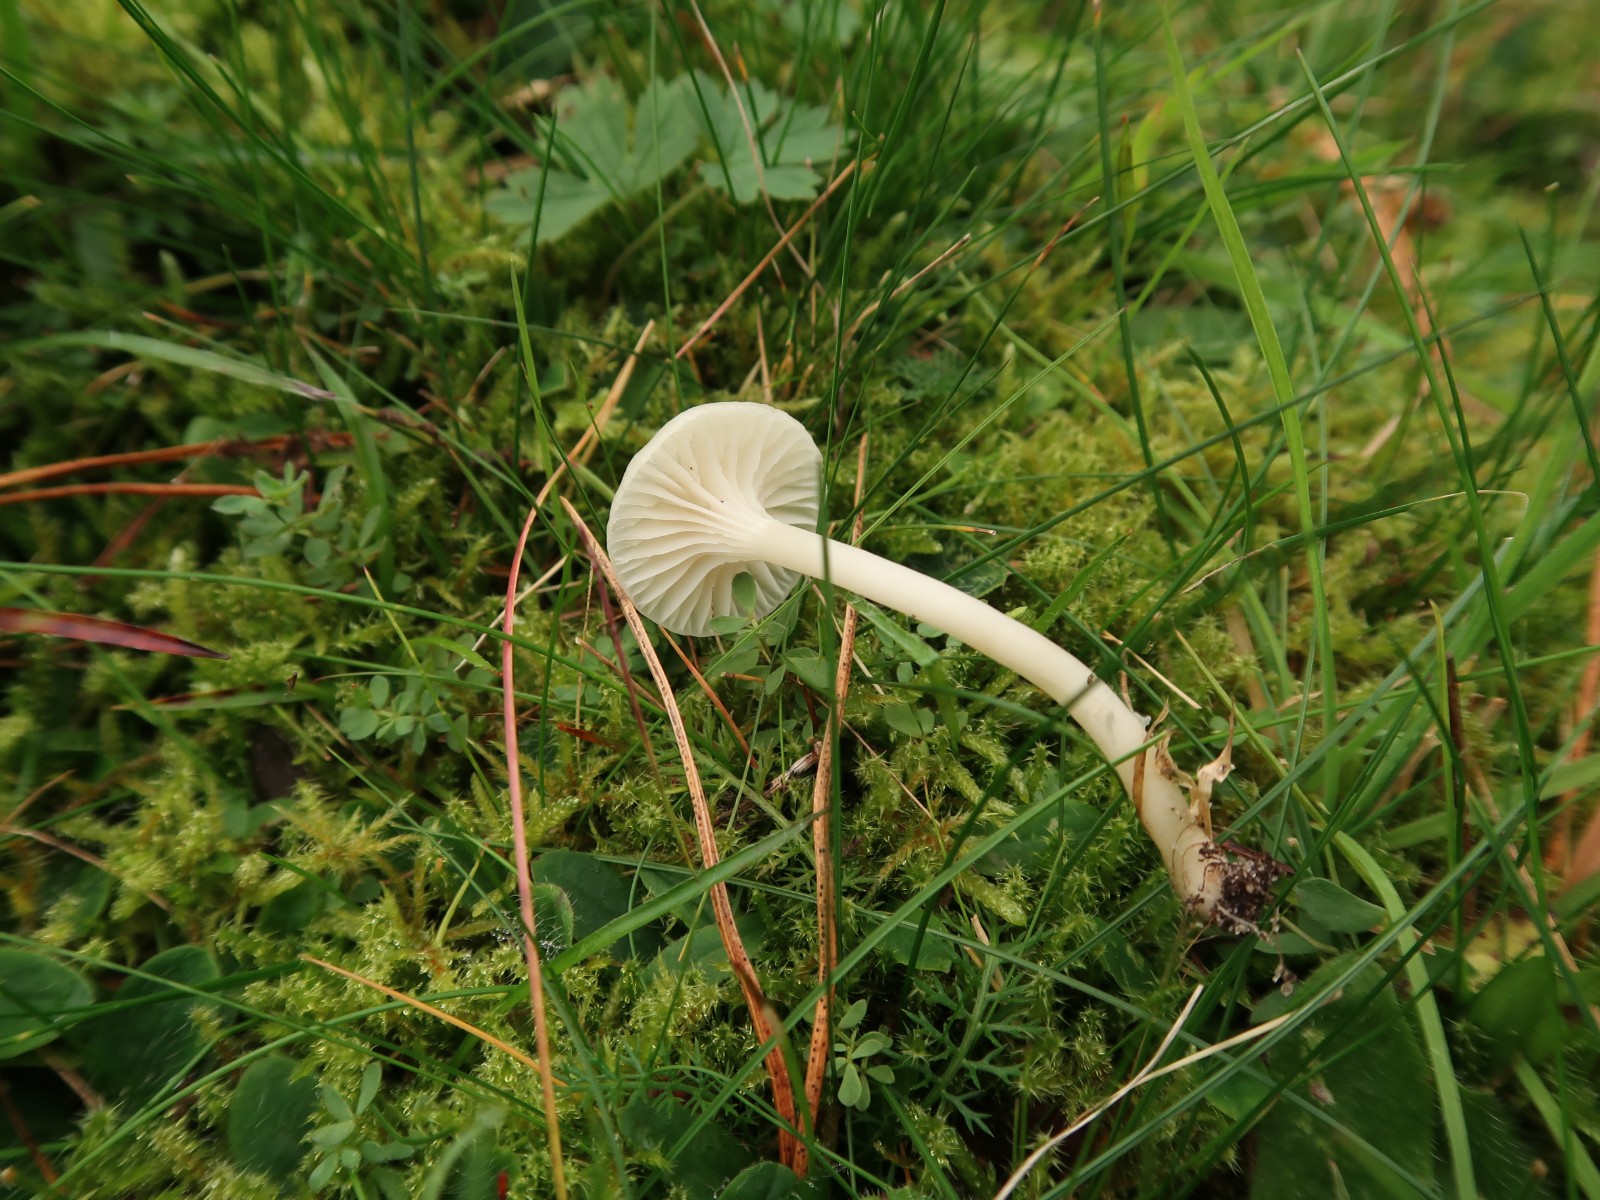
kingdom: Fungi
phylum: Basidiomycota
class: Agaricomycetes
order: Agaricales
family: Hygrophoraceae
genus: Cuphophyllus
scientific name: Cuphophyllus virgineus
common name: snehvid vokshat
